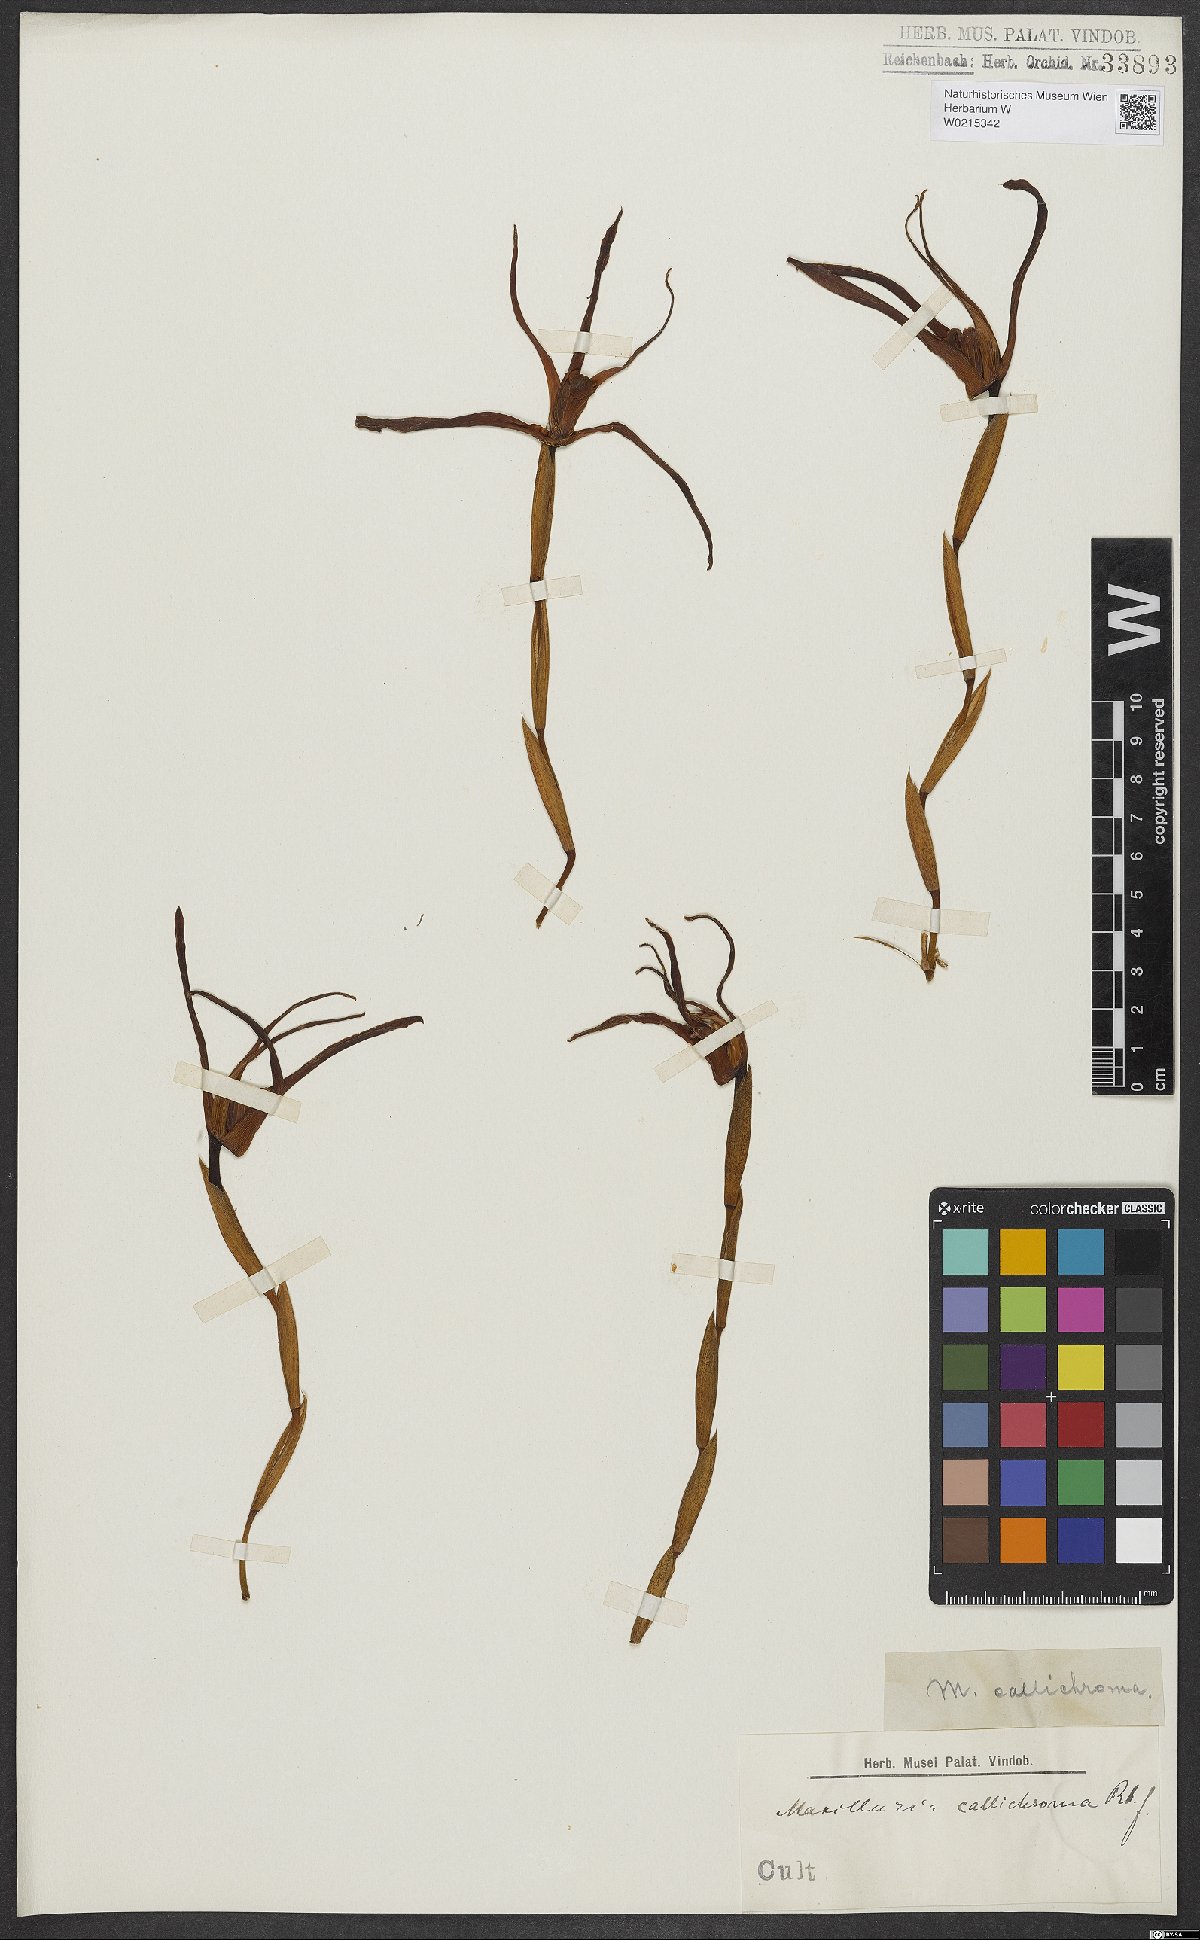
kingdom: Plantae
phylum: Tracheophyta
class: Liliopsida
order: Asparagales
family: Orchidaceae
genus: Maxillaria
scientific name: Maxillaria callichroma
